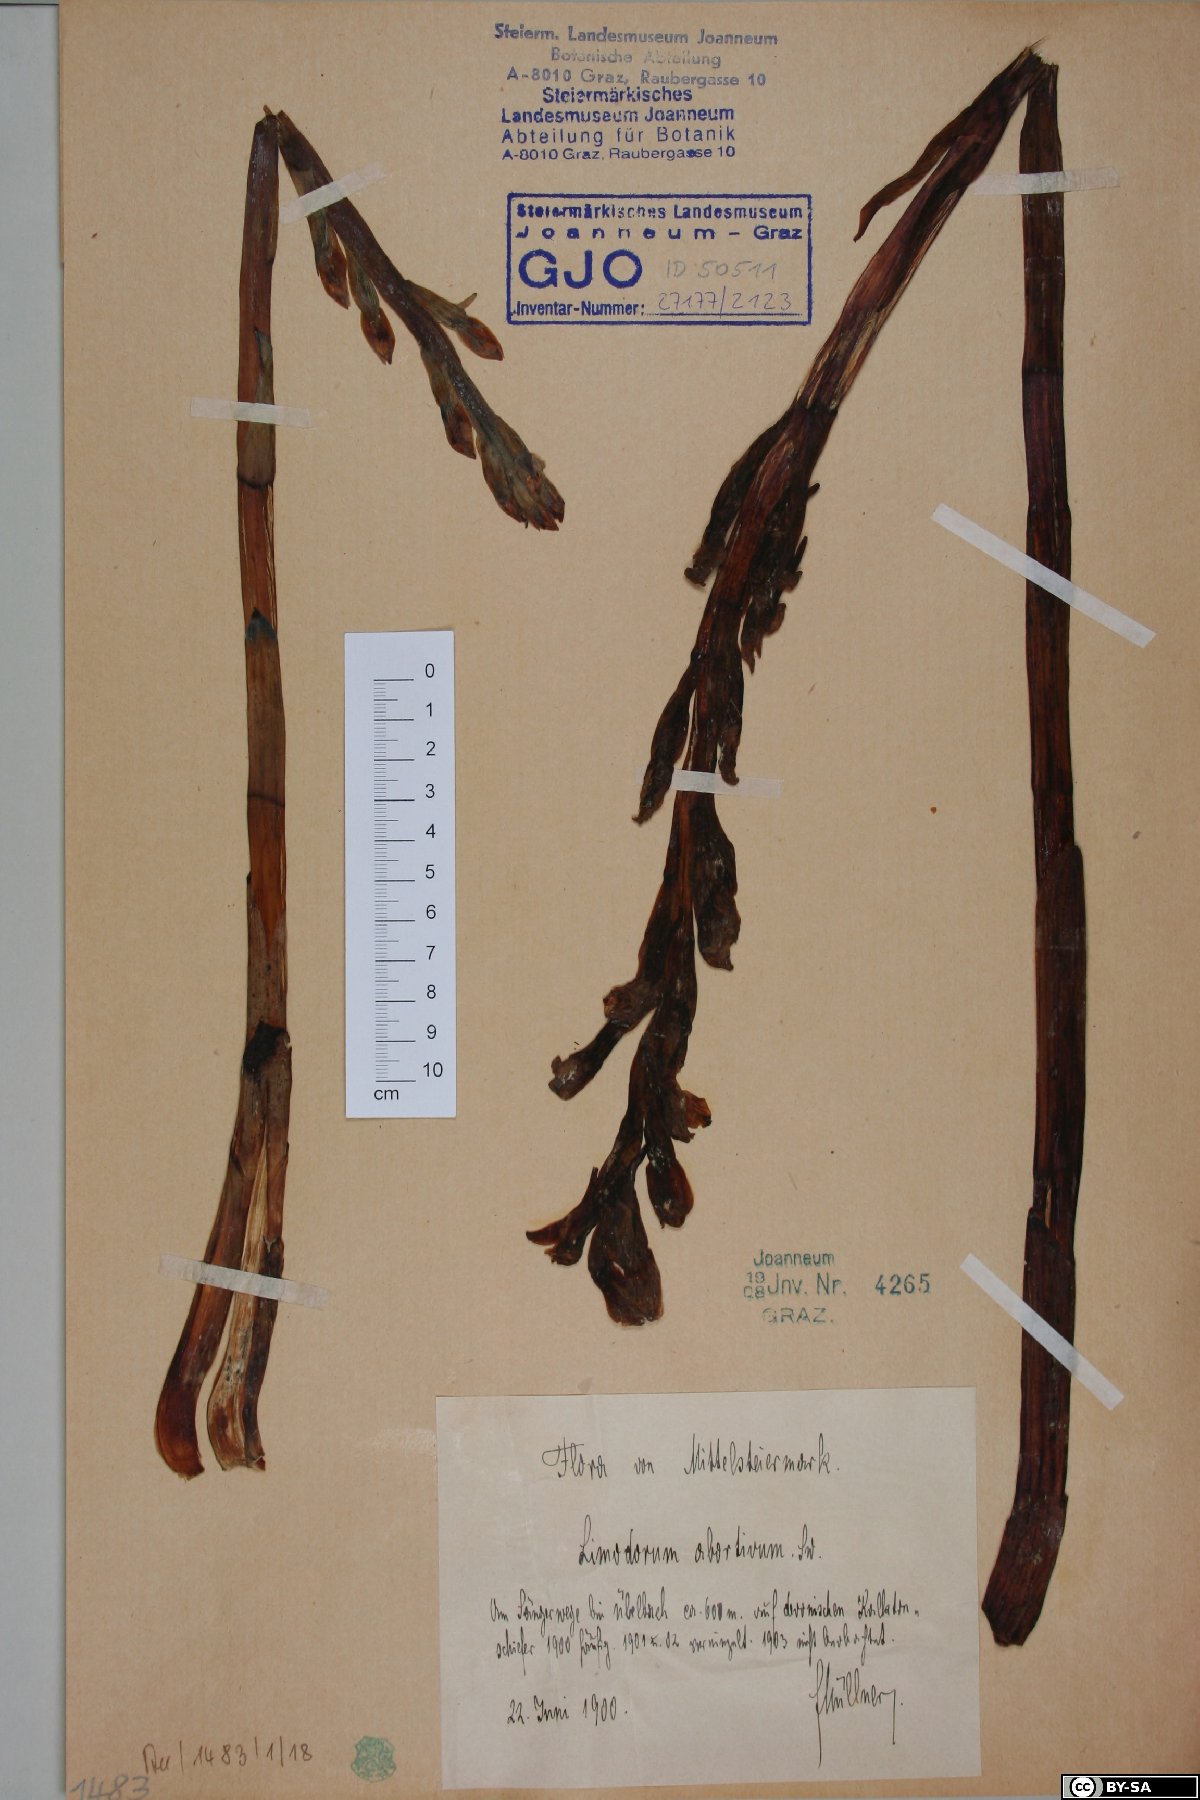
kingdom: Plantae
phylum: Tracheophyta
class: Liliopsida
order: Asparagales
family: Orchidaceae
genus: Limodorum
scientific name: Limodorum abortivum
